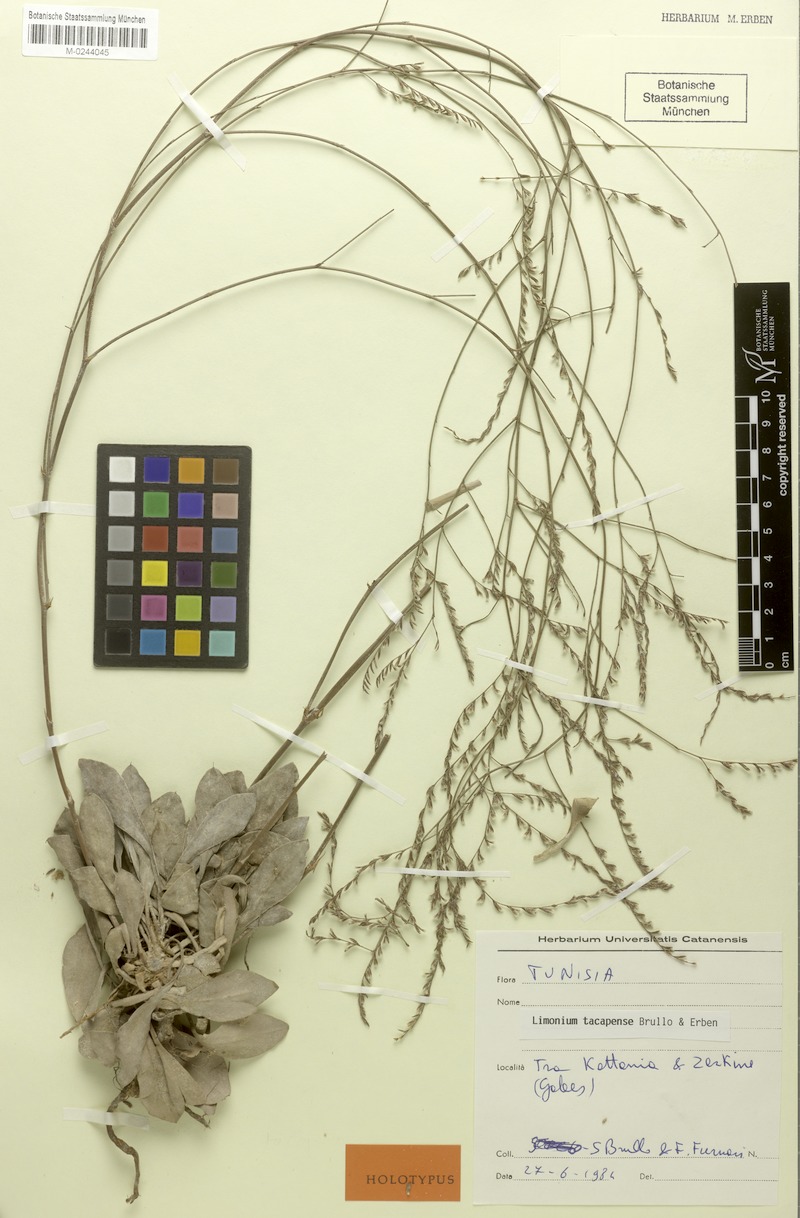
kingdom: Plantae
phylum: Tracheophyta
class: Magnoliopsida
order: Caryophyllales
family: Plumbaginaceae
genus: Limonium
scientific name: Limonium tacapense
